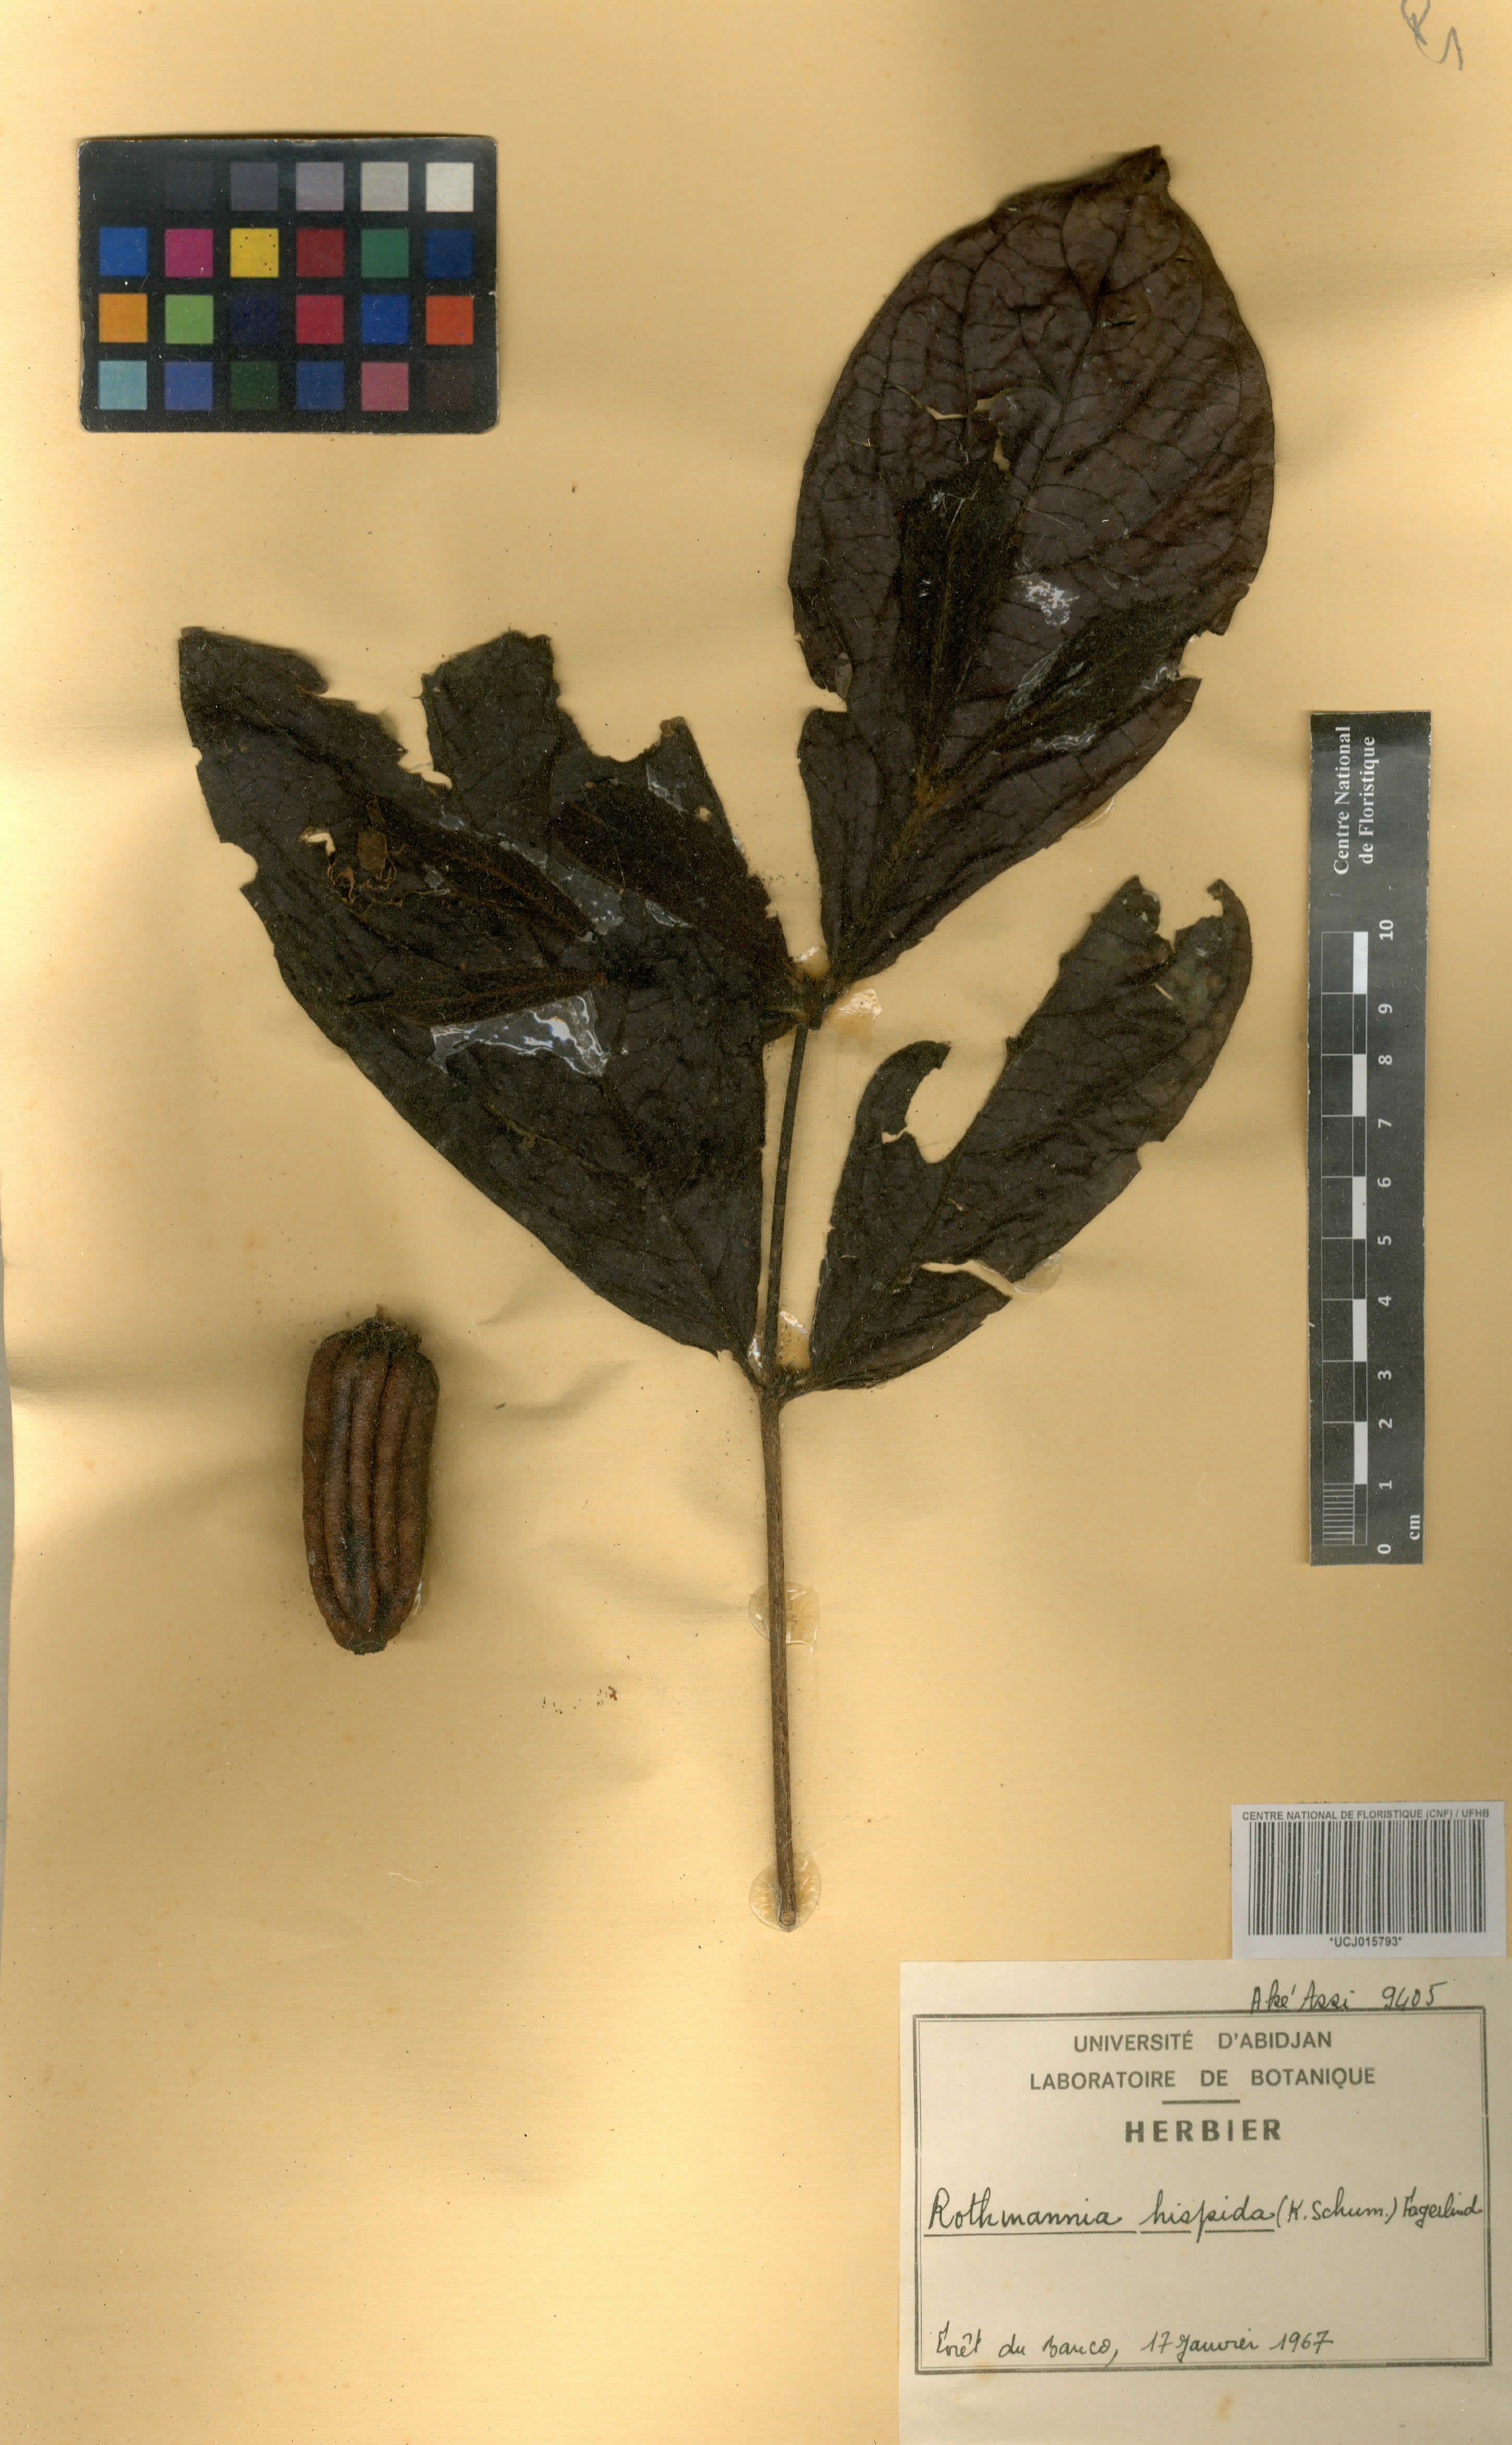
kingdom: Plantae
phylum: Tracheophyta
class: Magnoliopsida
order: Gentianales
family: Rubiaceae
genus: Rothmannia
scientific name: Rothmannia hispida
